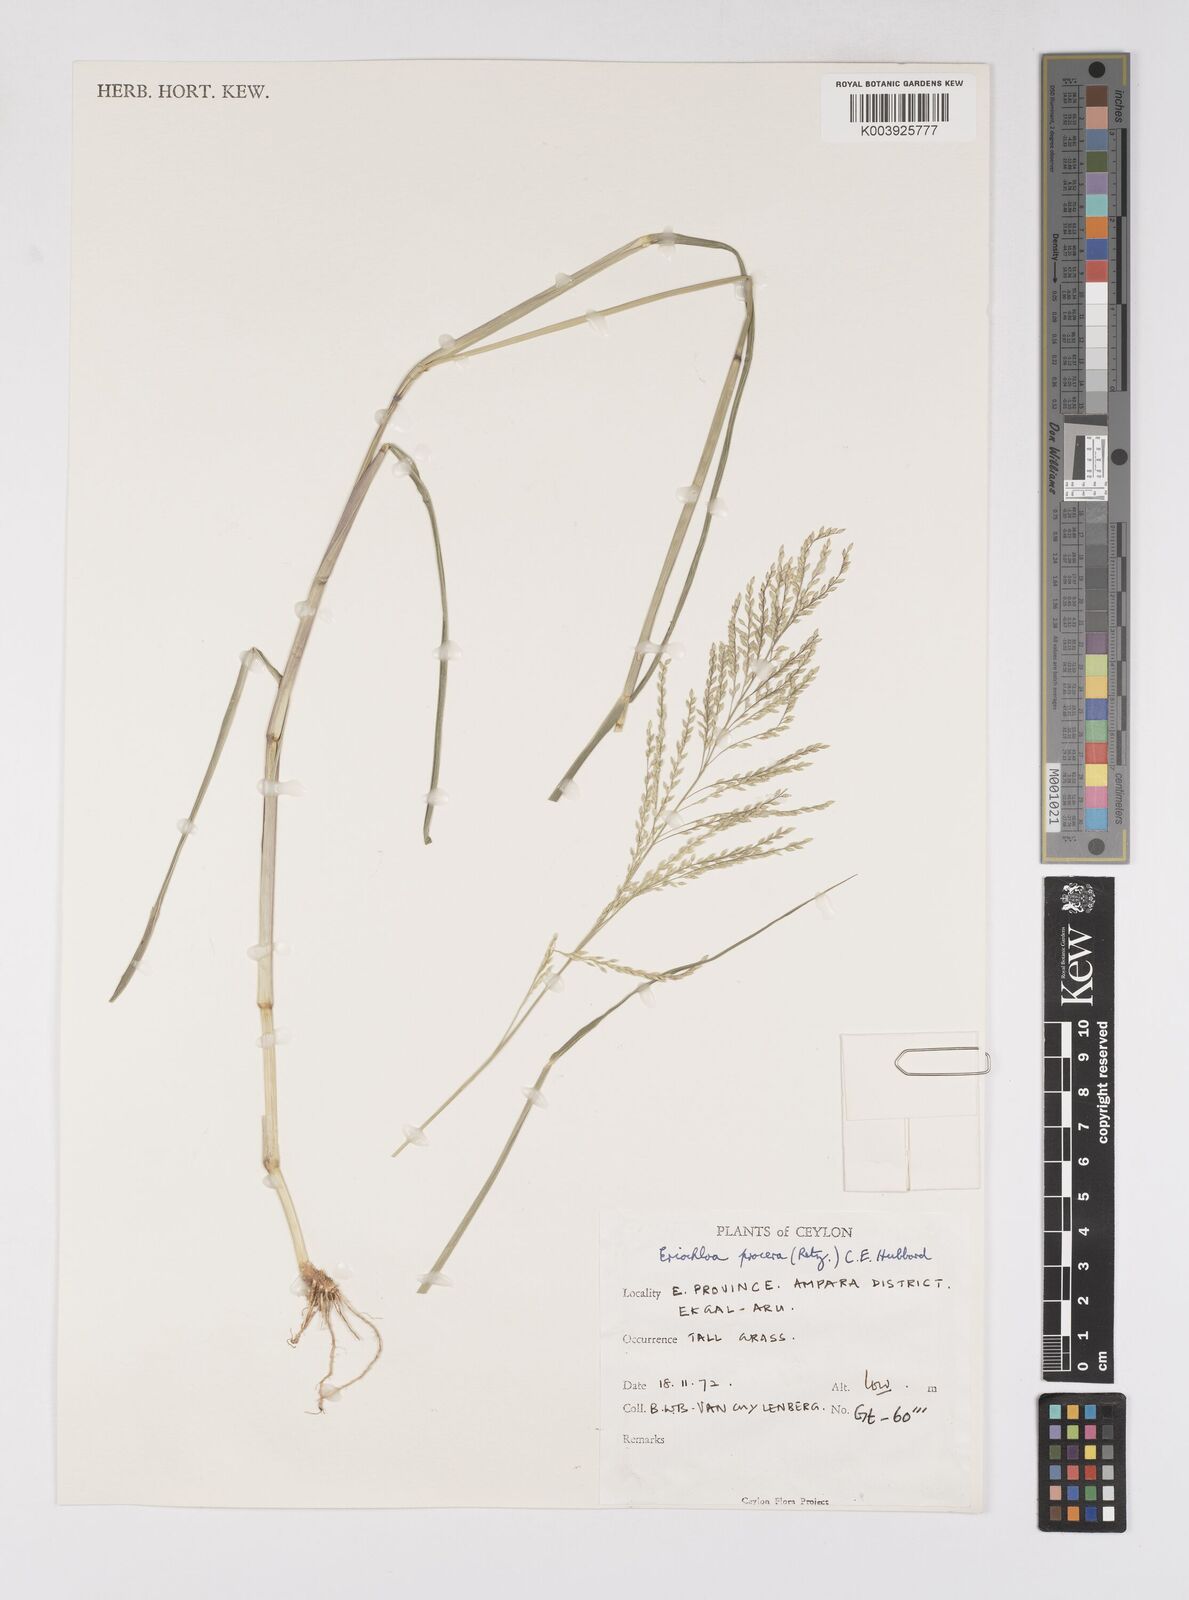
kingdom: Plantae
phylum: Tracheophyta
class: Liliopsida
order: Poales
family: Poaceae
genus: Eriochloa
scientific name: Eriochloa procera
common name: Spring grass
